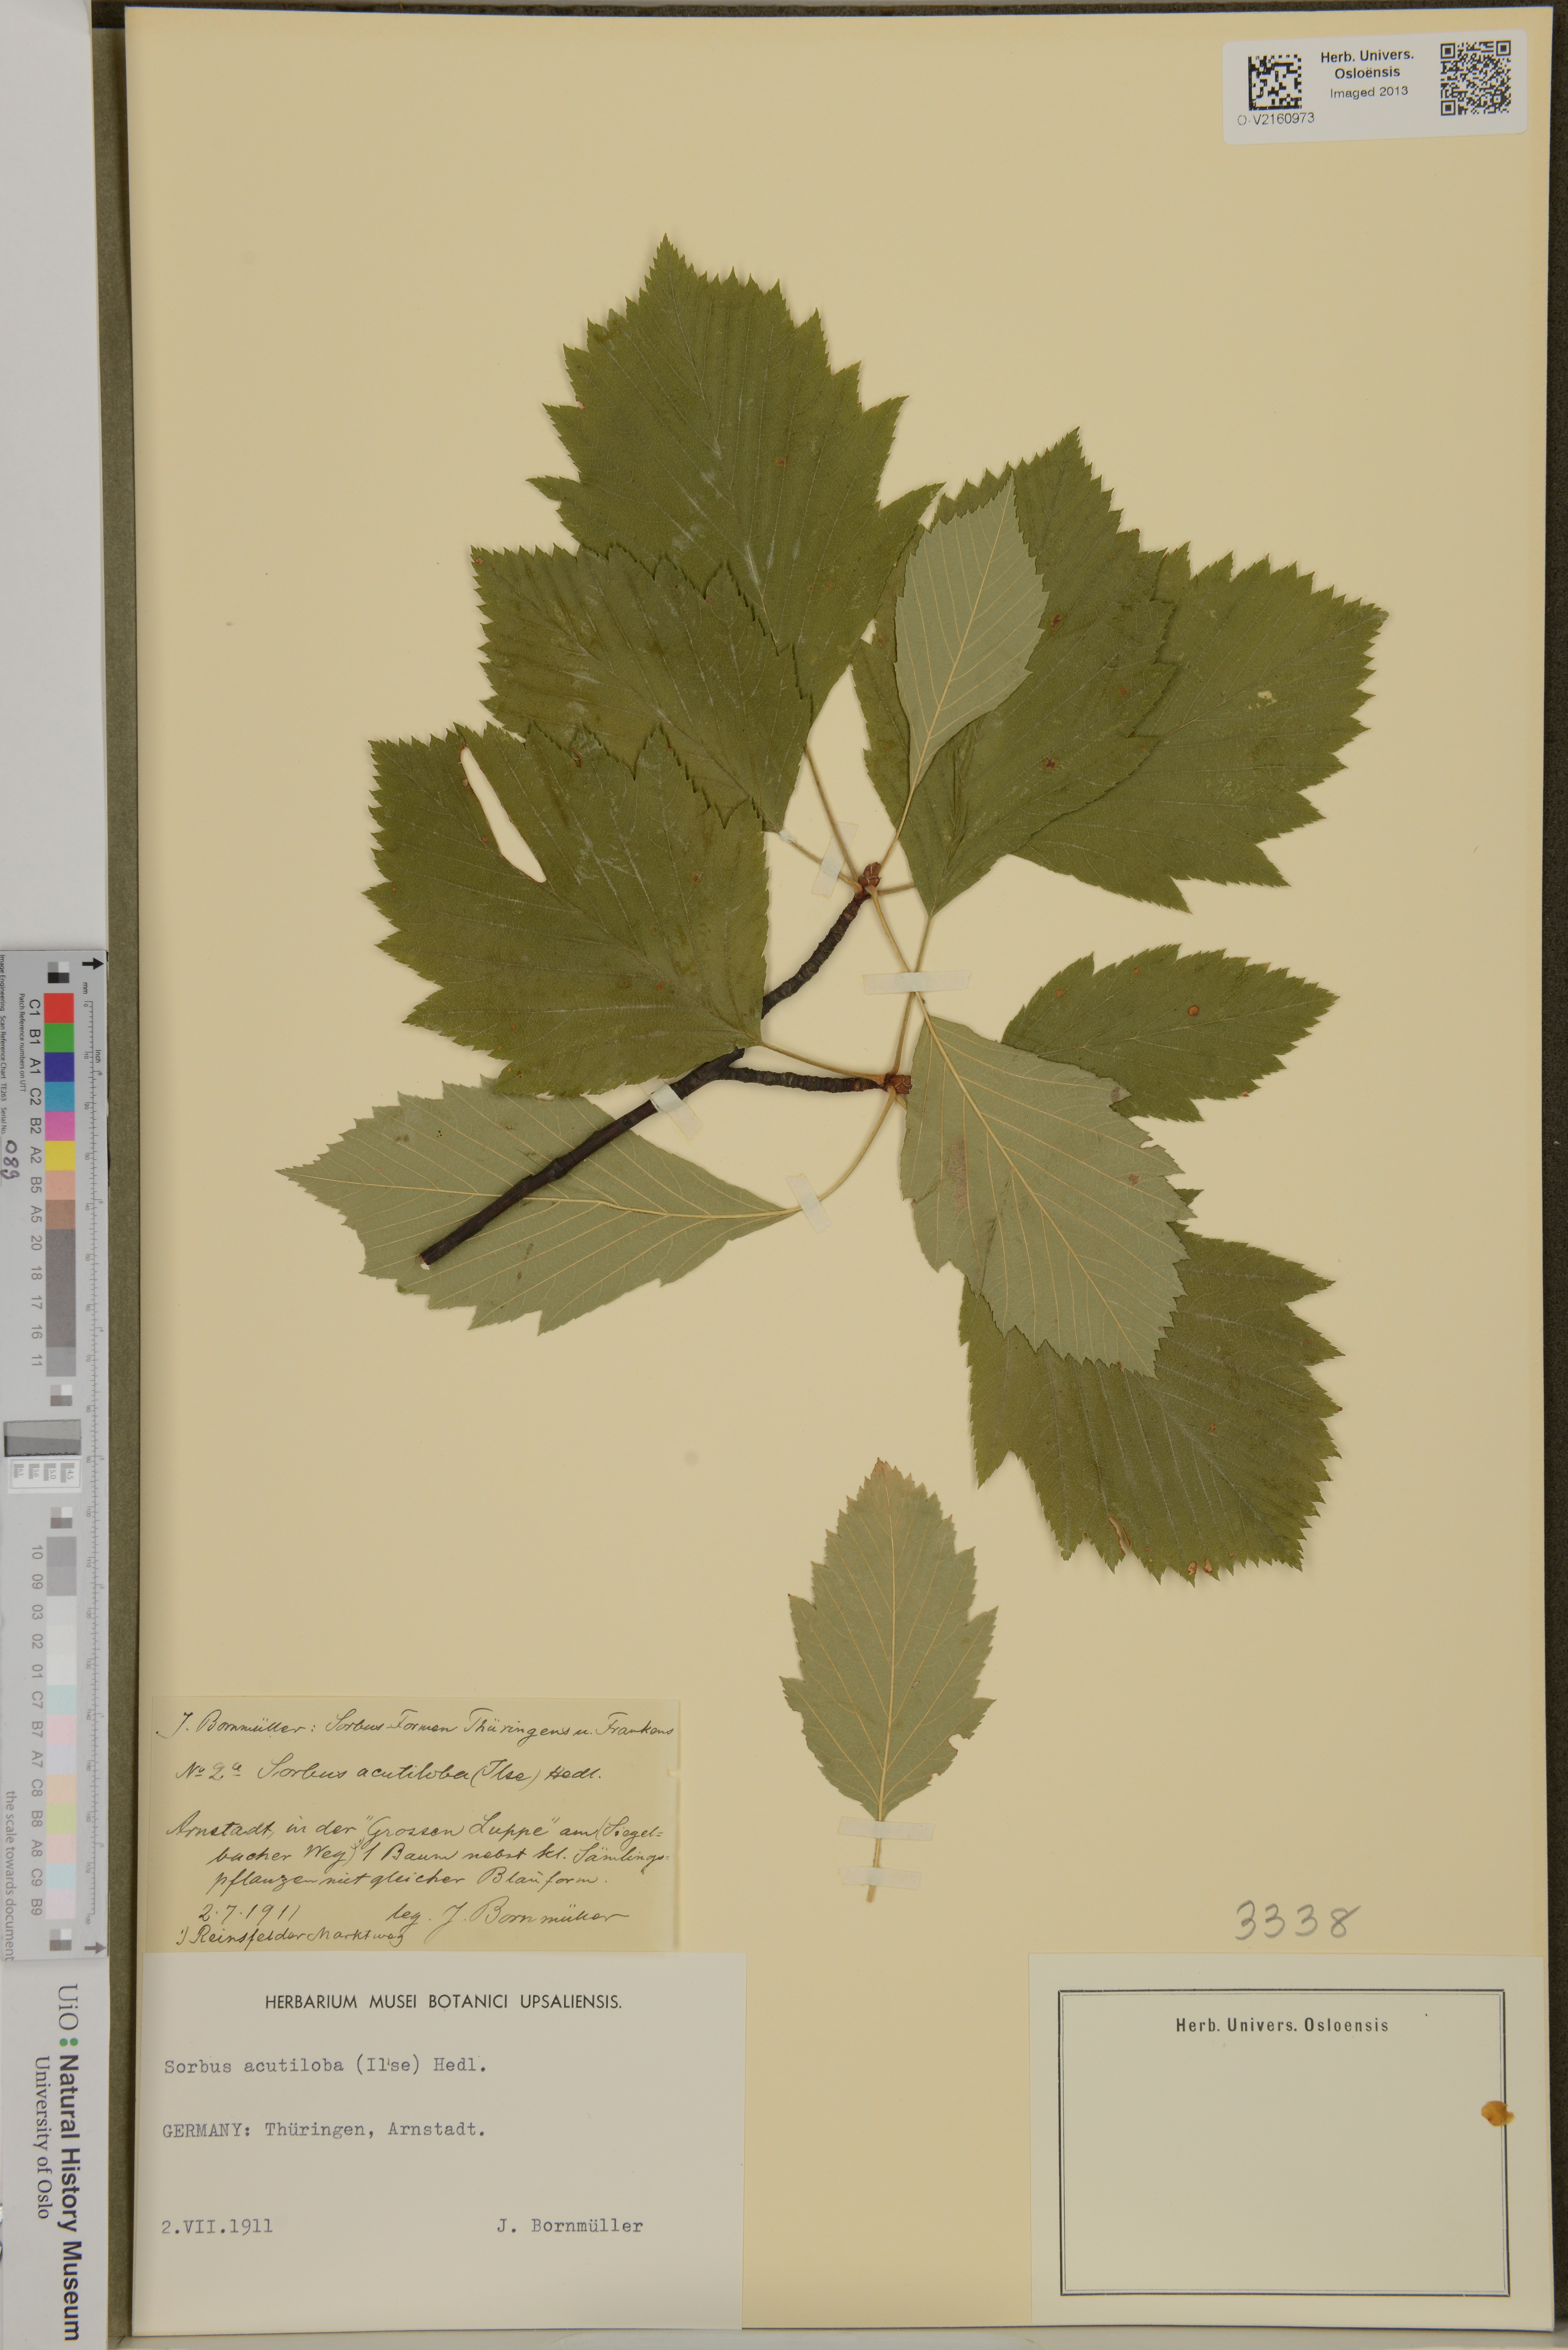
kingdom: Plantae
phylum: Tracheophyta
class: Magnoliopsida
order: Rosales
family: Rosaceae
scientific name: Rosaceae
